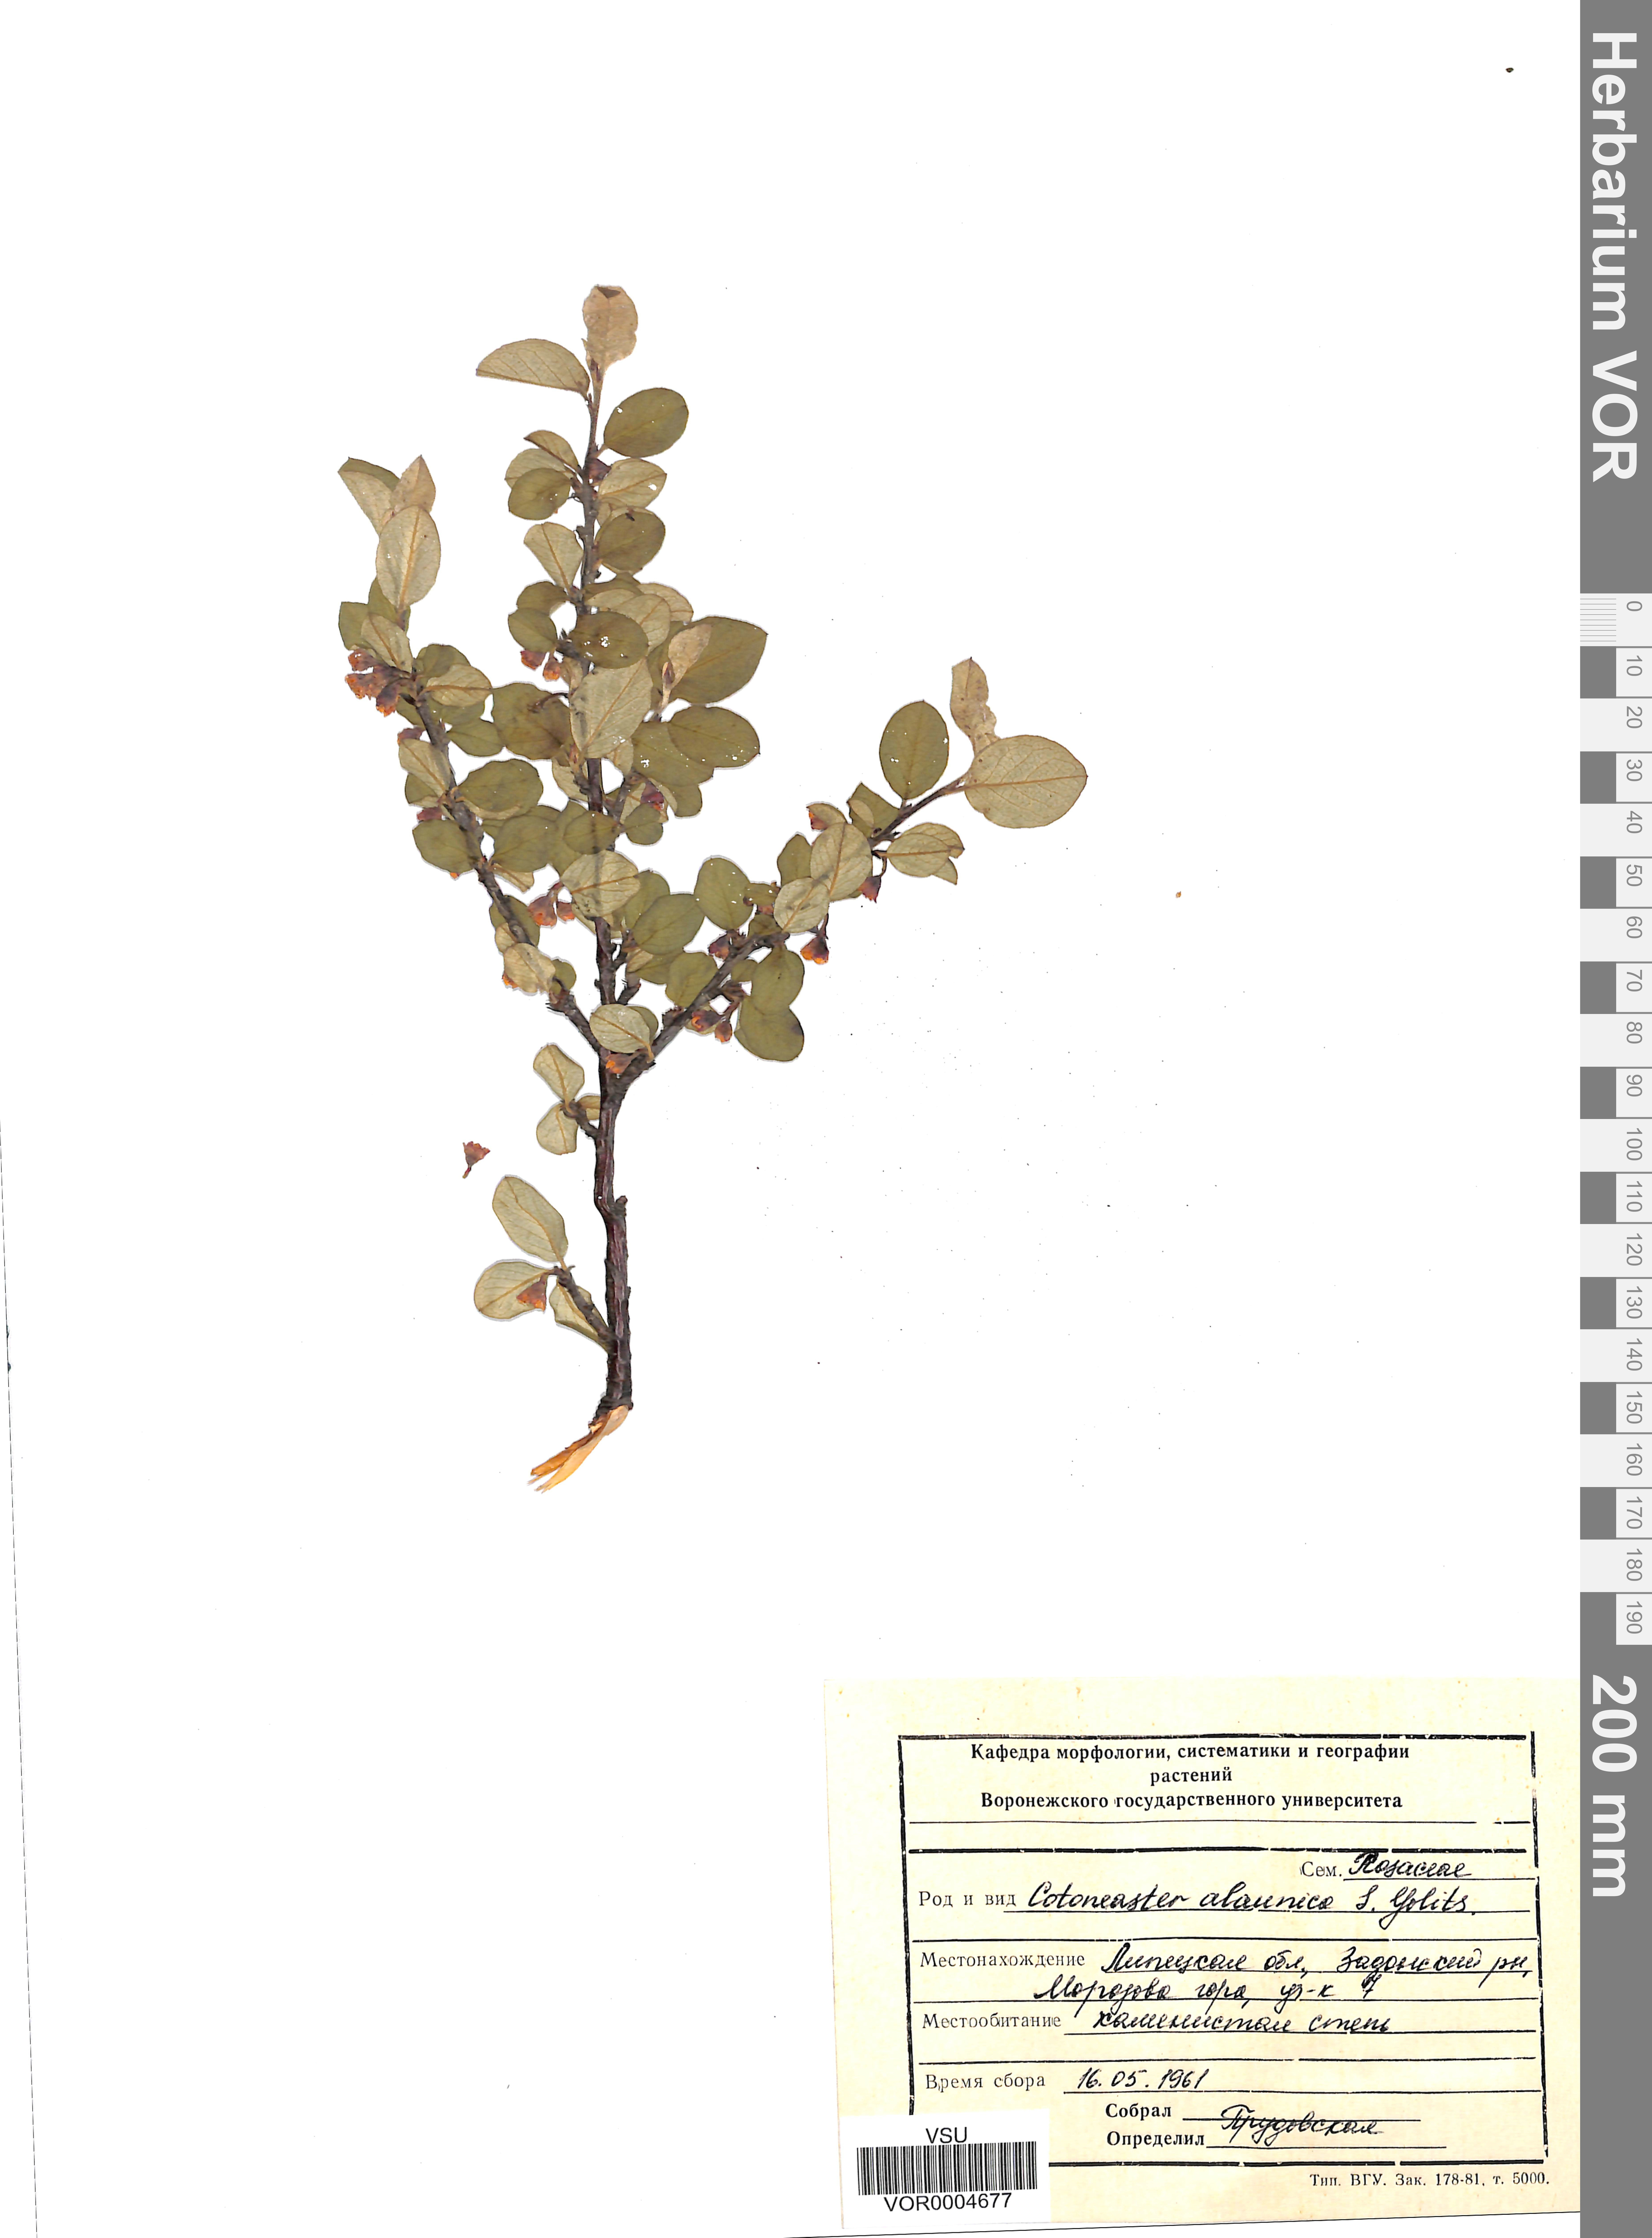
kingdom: Plantae
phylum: Tracheophyta
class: Magnoliopsida
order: Rosales
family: Rosaceae
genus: Cotoneaster
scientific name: Cotoneaster alaunicus
